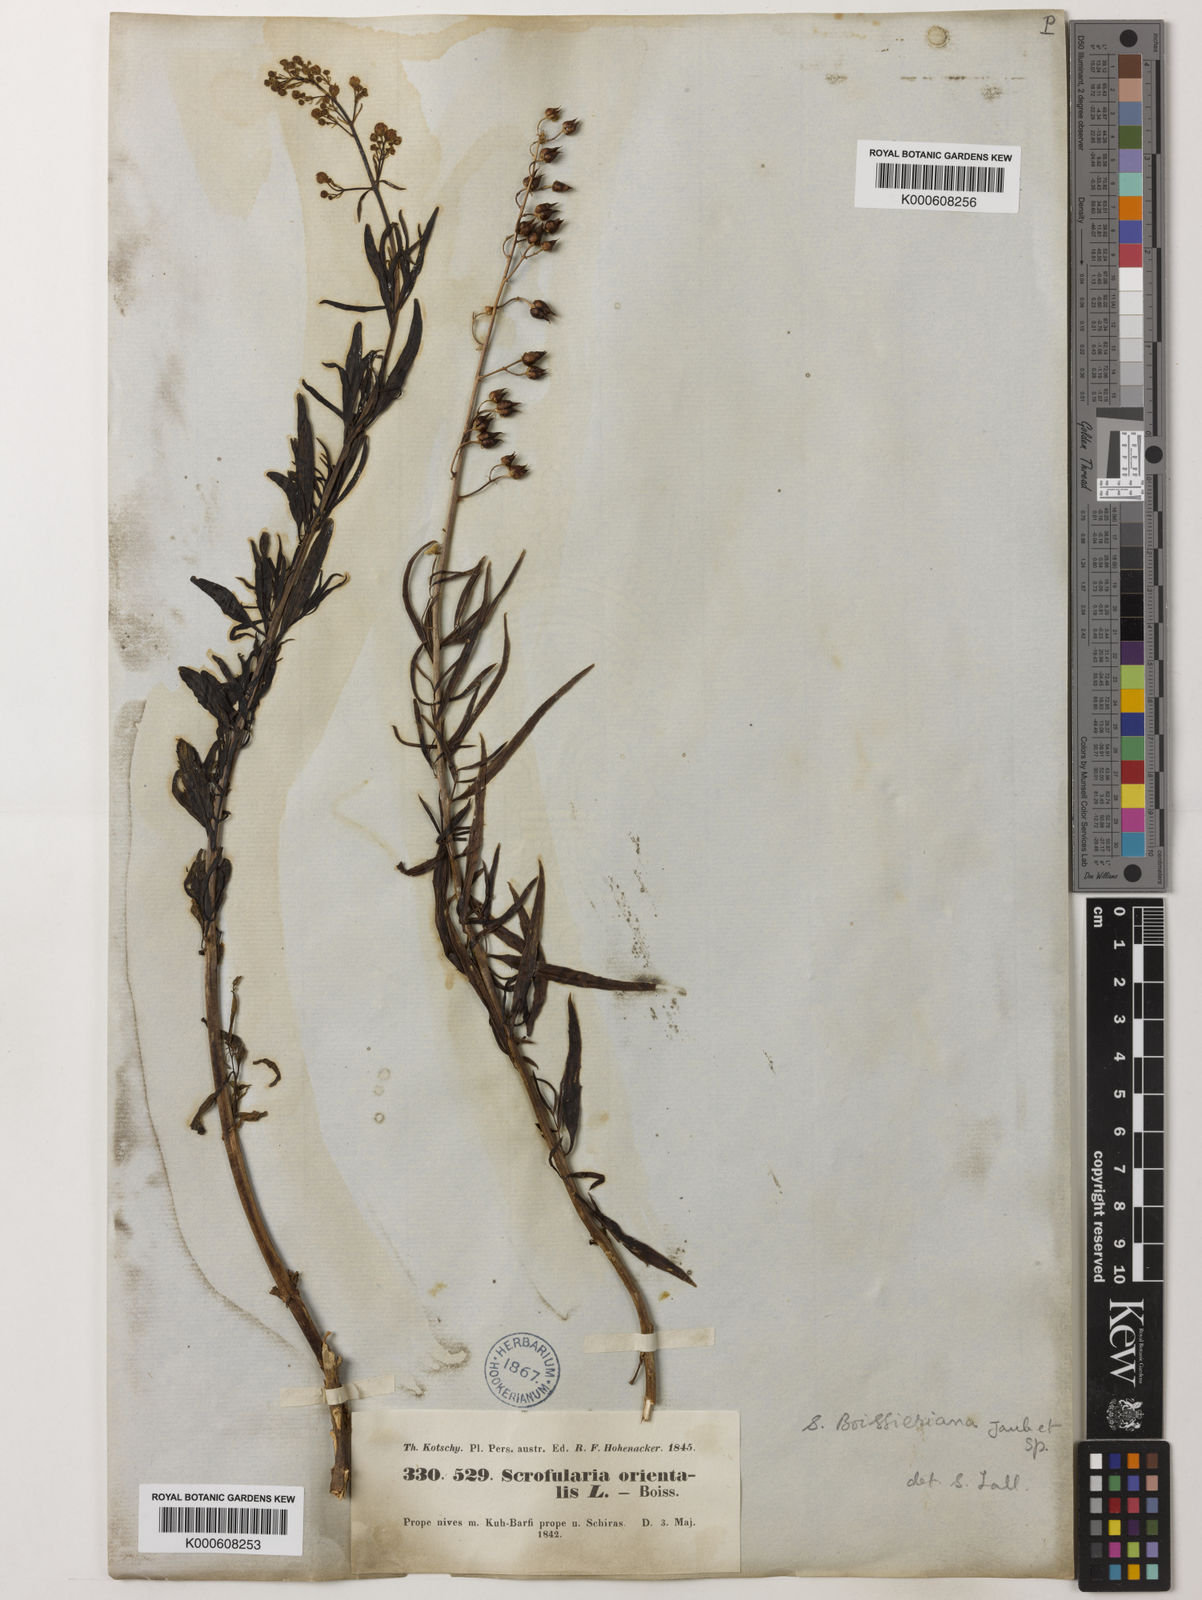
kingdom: Plantae
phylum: Tracheophyta
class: Magnoliopsida
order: Lamiales
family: Scrophulariaceae
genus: Scrophularia
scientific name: Scrophularia nervosa
